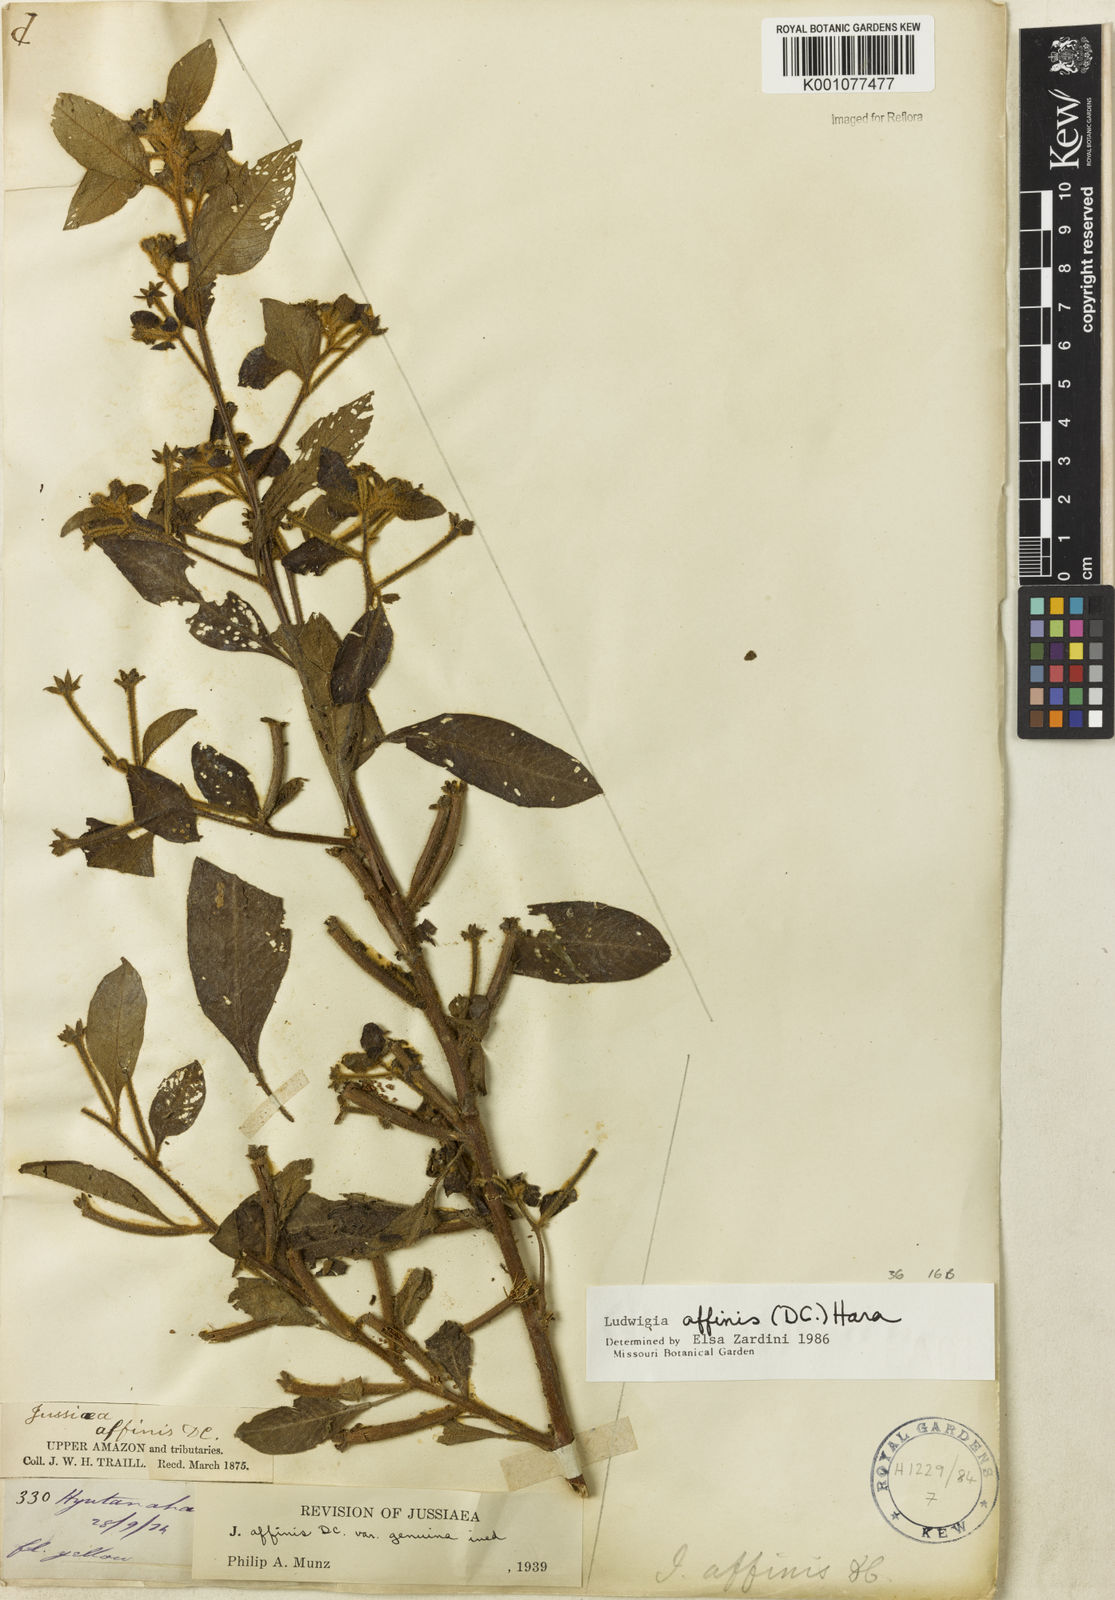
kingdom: Plantae
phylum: Tracheophyta
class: Magnoliopsida
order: Myrtales
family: Onagraceae
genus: Ludwigia
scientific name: Ludwigia affinis
